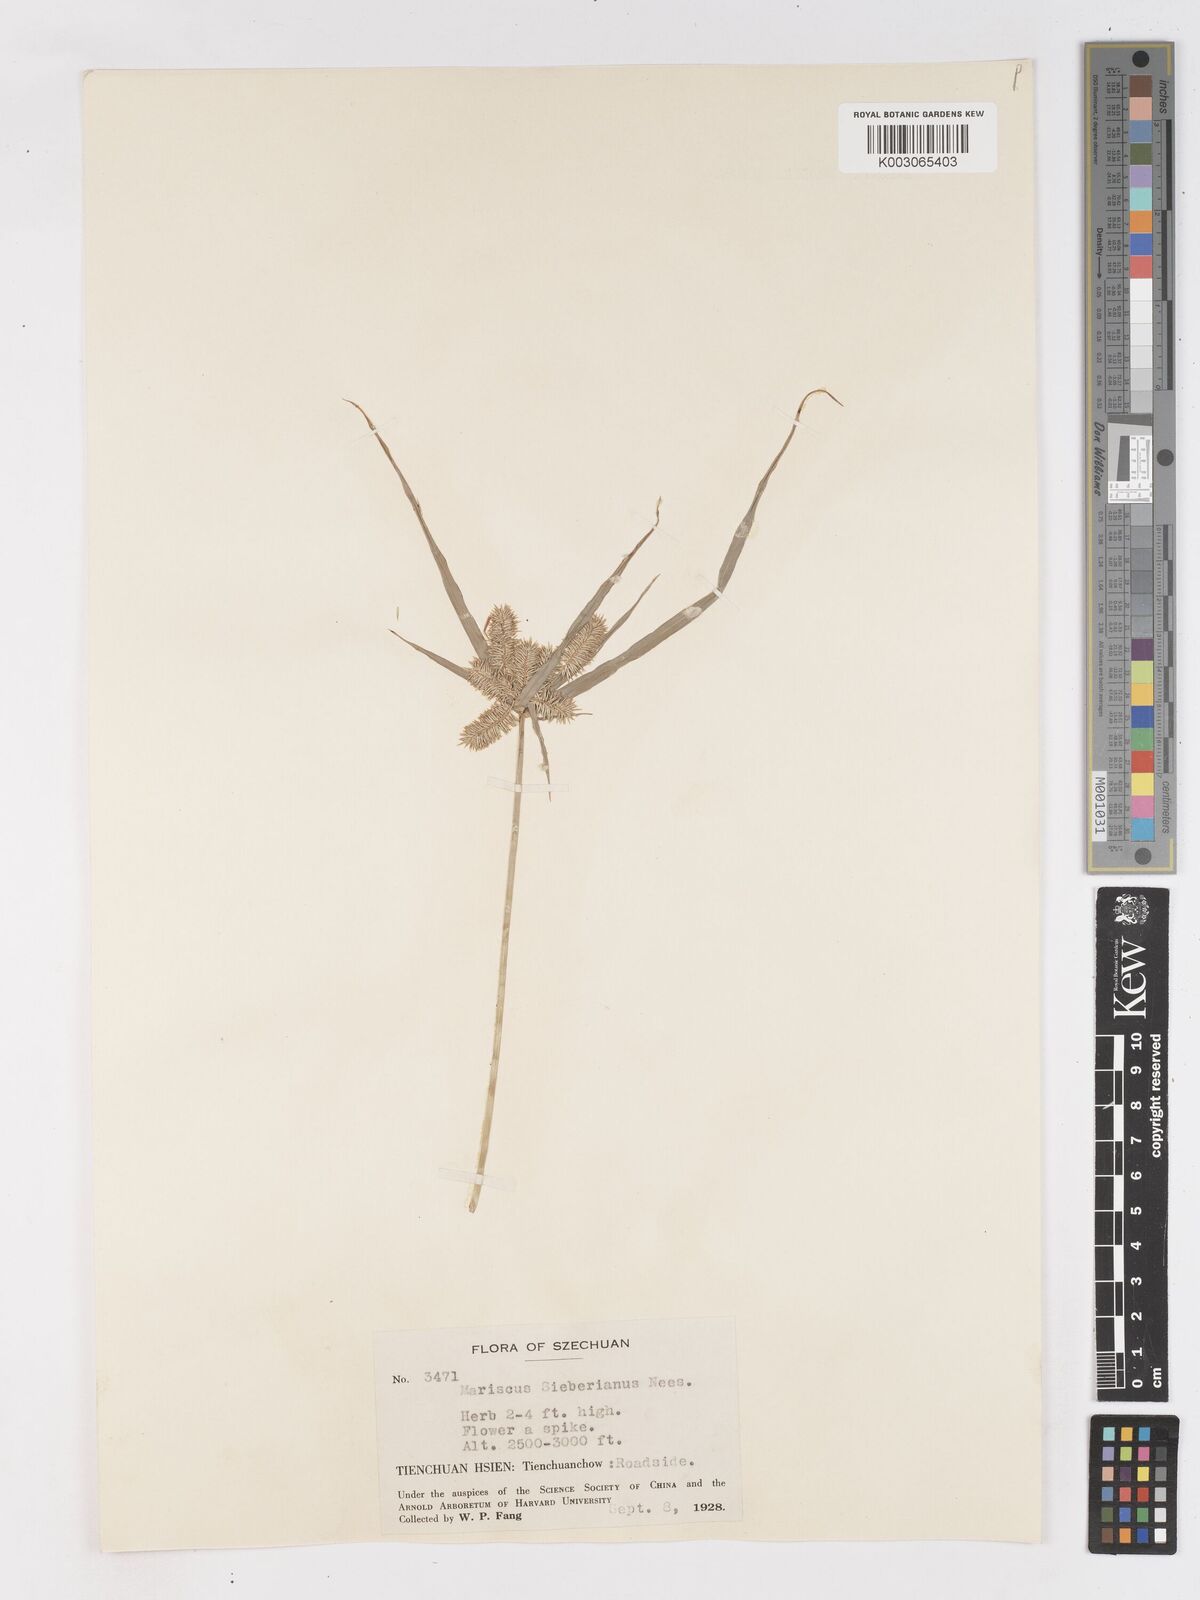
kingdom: Plantae
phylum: Tracheophyta
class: Liliopsida
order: Poales
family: Cyperaceae
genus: Cyperus
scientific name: Cyperus cyperoides
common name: Pacific island flat sedge
